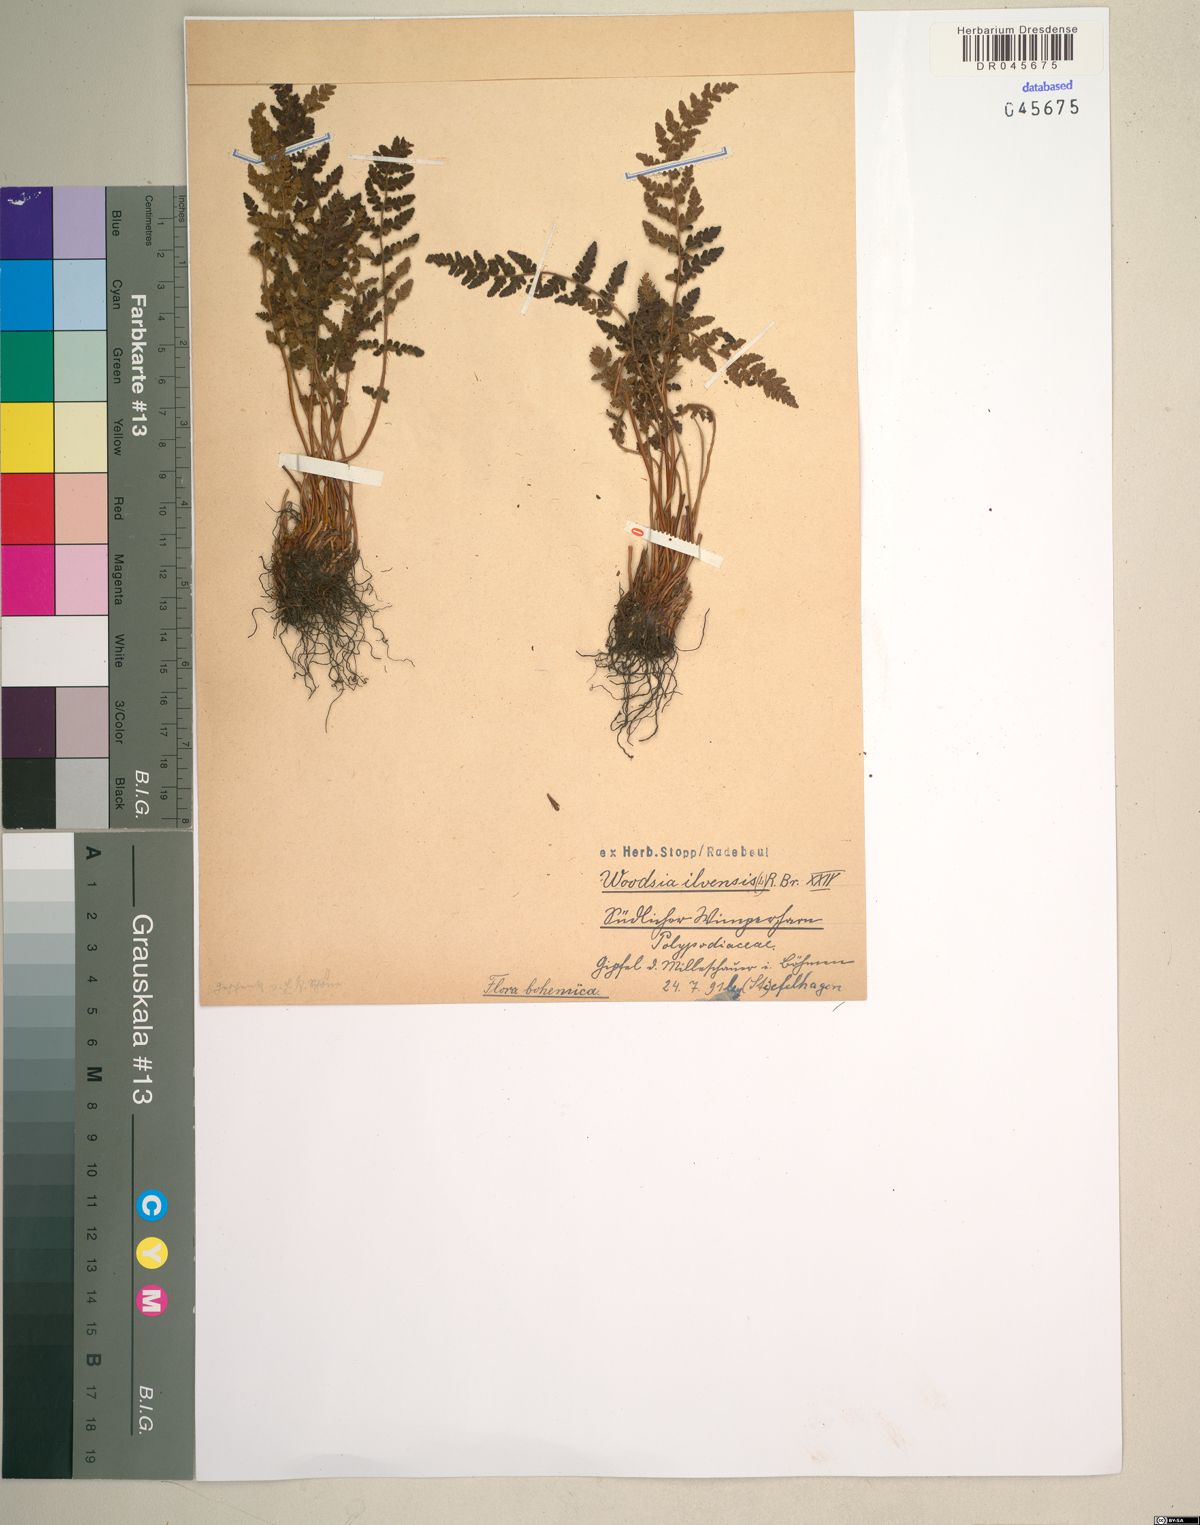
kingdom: Plantae
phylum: Tracheophyta
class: Polypodiopsida
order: Polypodiales
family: Woodsiaceae
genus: Woodsia
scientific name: Woodsia ilvensis
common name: Fragrant woodsia
